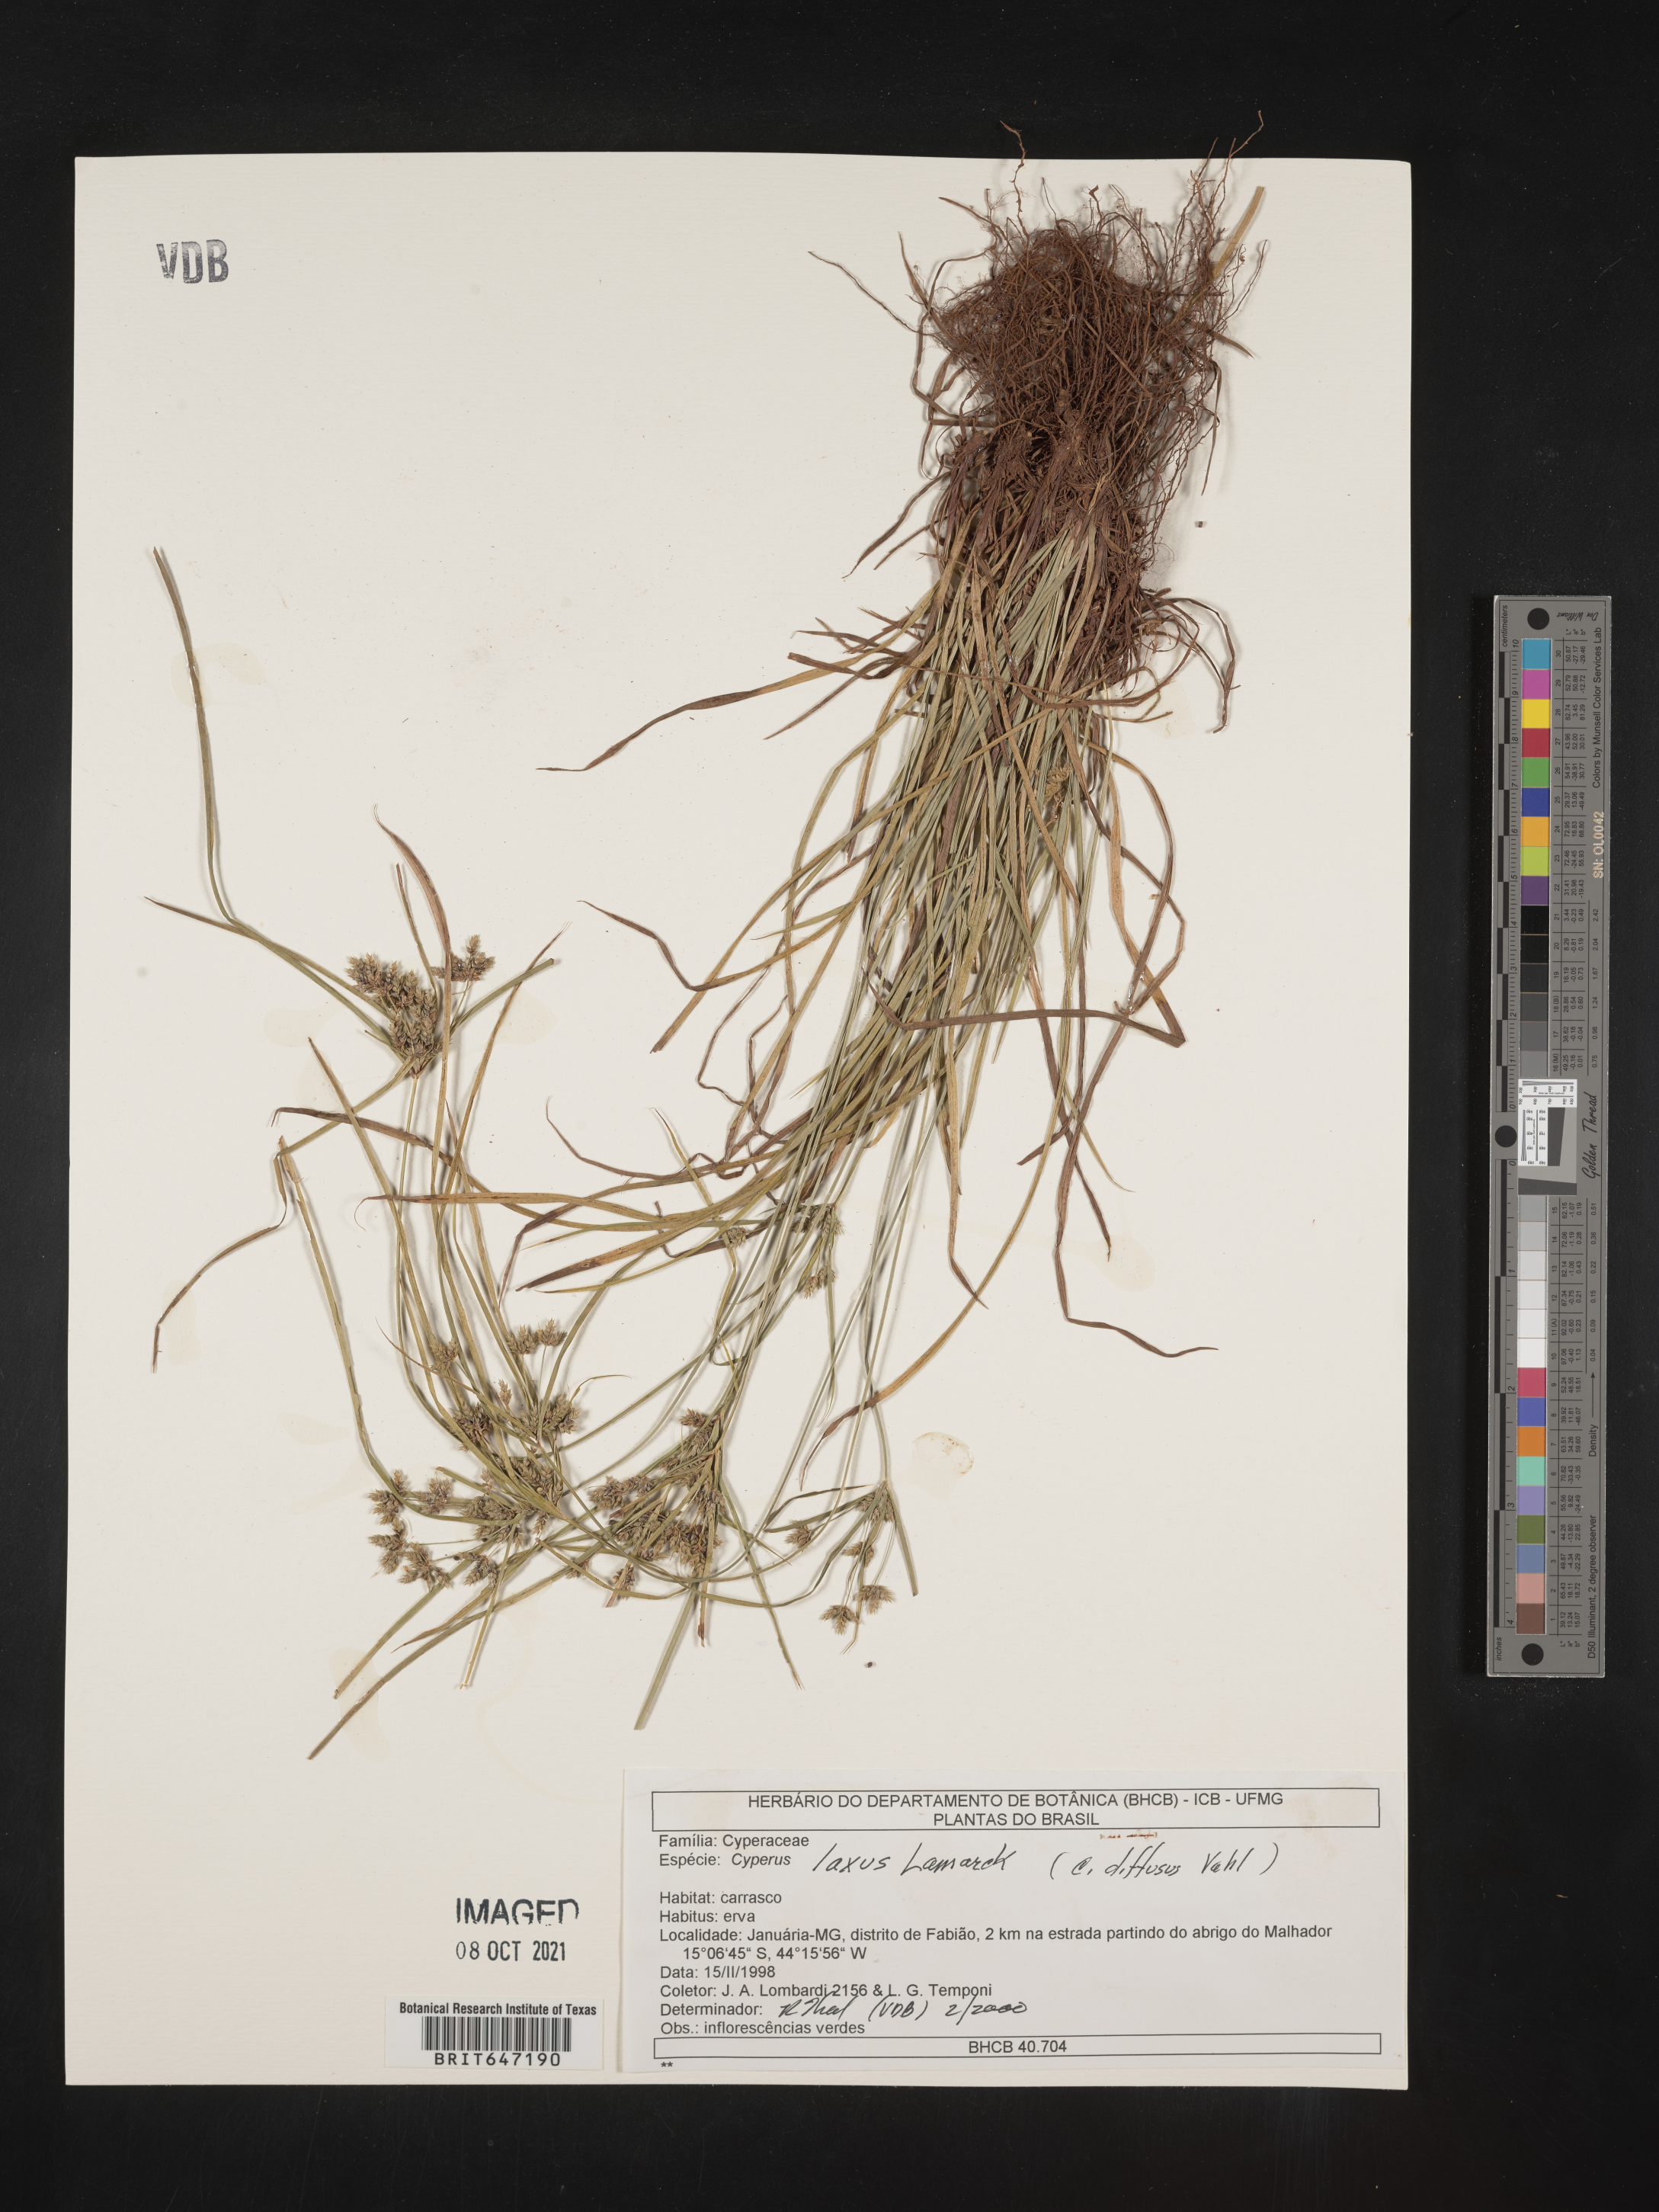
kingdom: Plantae
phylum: Tracheophyta
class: Liliopsida
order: Poales
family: Cyperaceae
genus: Cyperus
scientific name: Cyperus laxus
